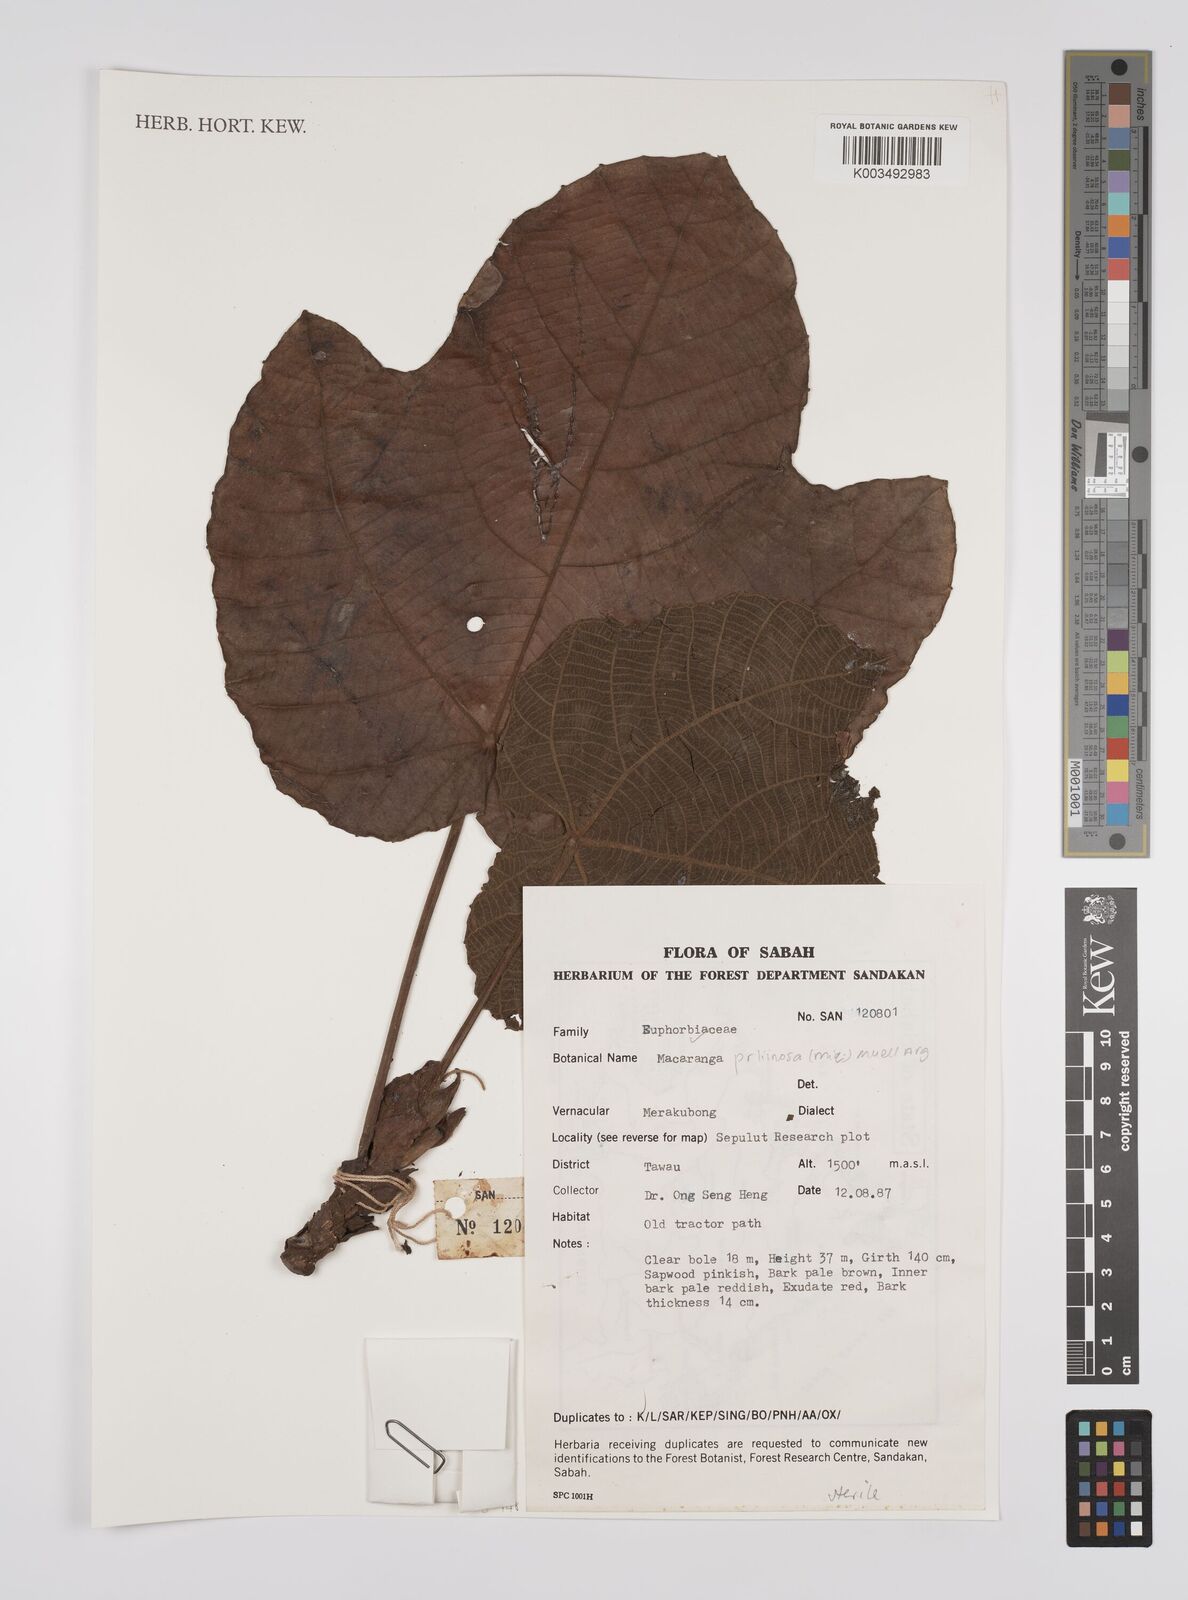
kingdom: Plantae
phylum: Tracheophyta
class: Magnoliopsida
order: Malpighiales
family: Euphorbiaceae
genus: Macaranga
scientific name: Macaranga pruinosa
